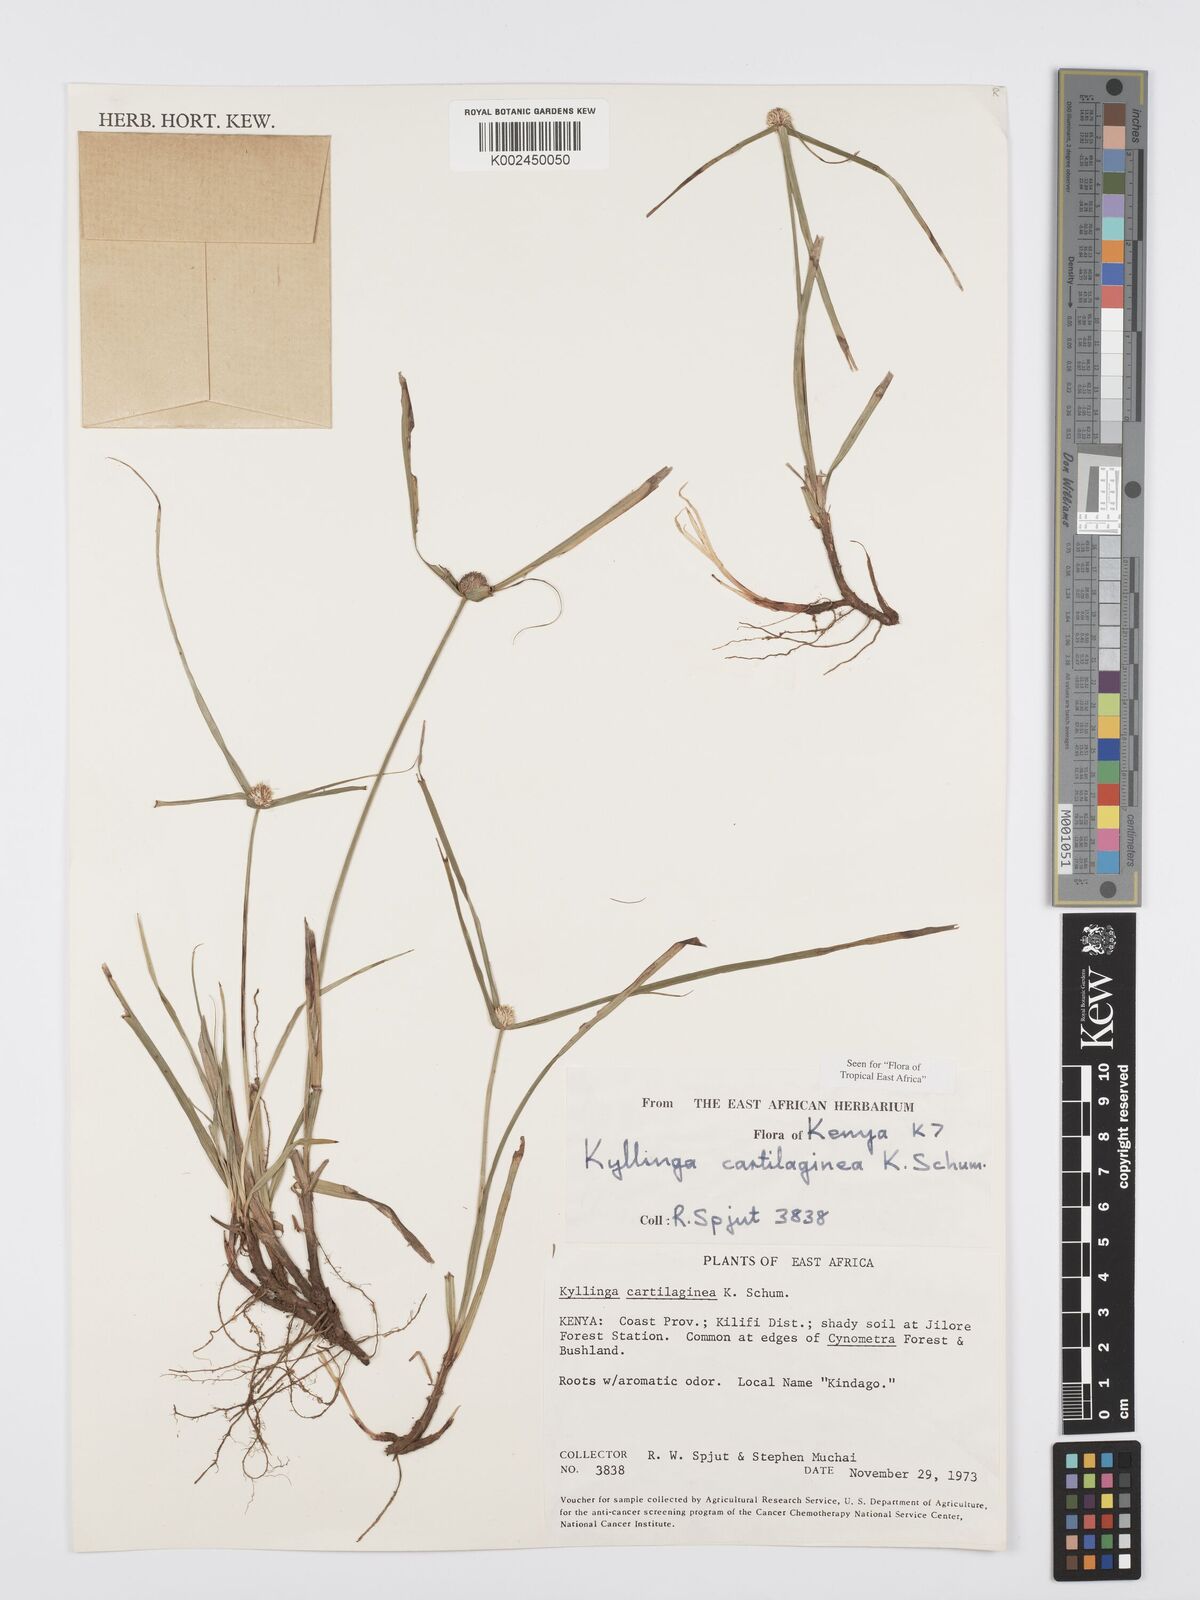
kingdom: Plantae
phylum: Tracheophyta
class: Liliopsida
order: Poales
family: Cyperaceae
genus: Cyperus
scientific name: Cyperus cartilagineus
